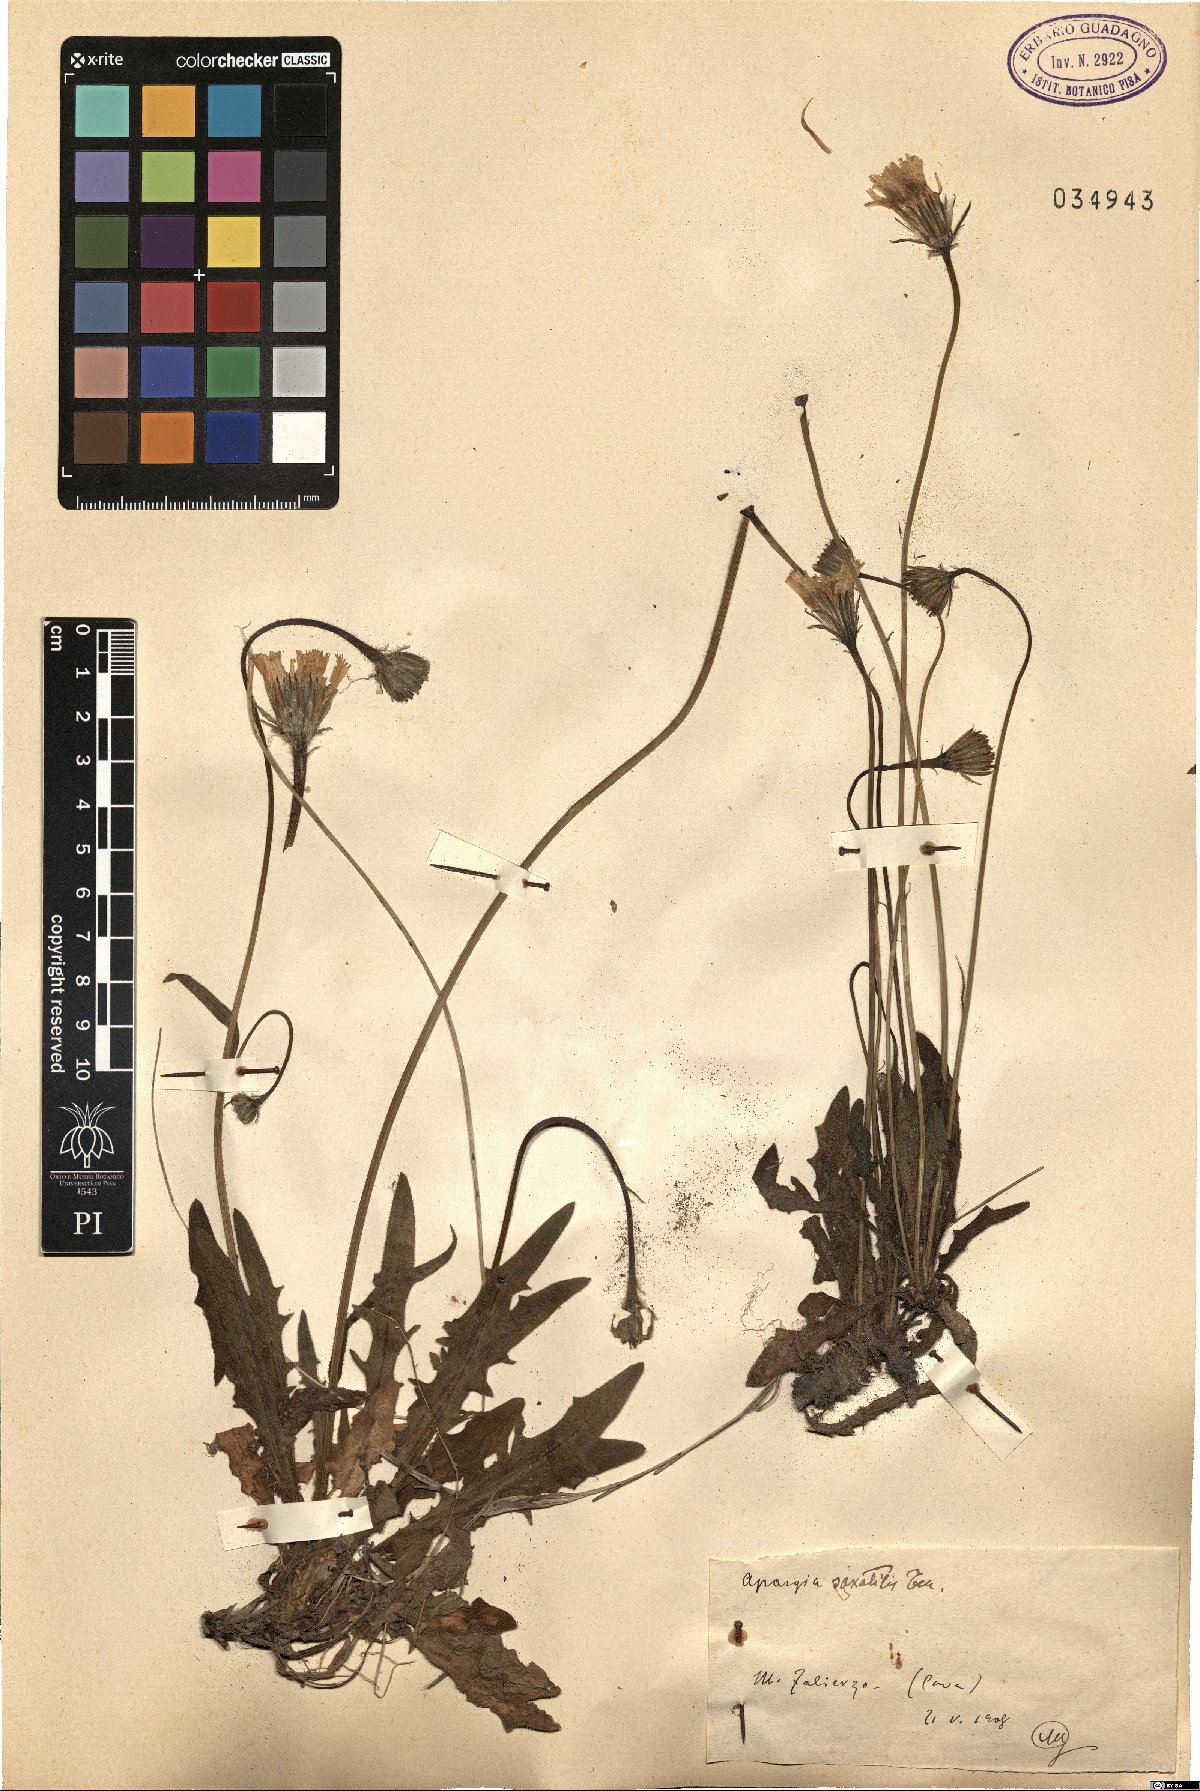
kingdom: Plantae
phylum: Tracheophyta
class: Magnoliopsida
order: Asterales
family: Asteraceae
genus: Leontodon
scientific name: Leontodon crispus
